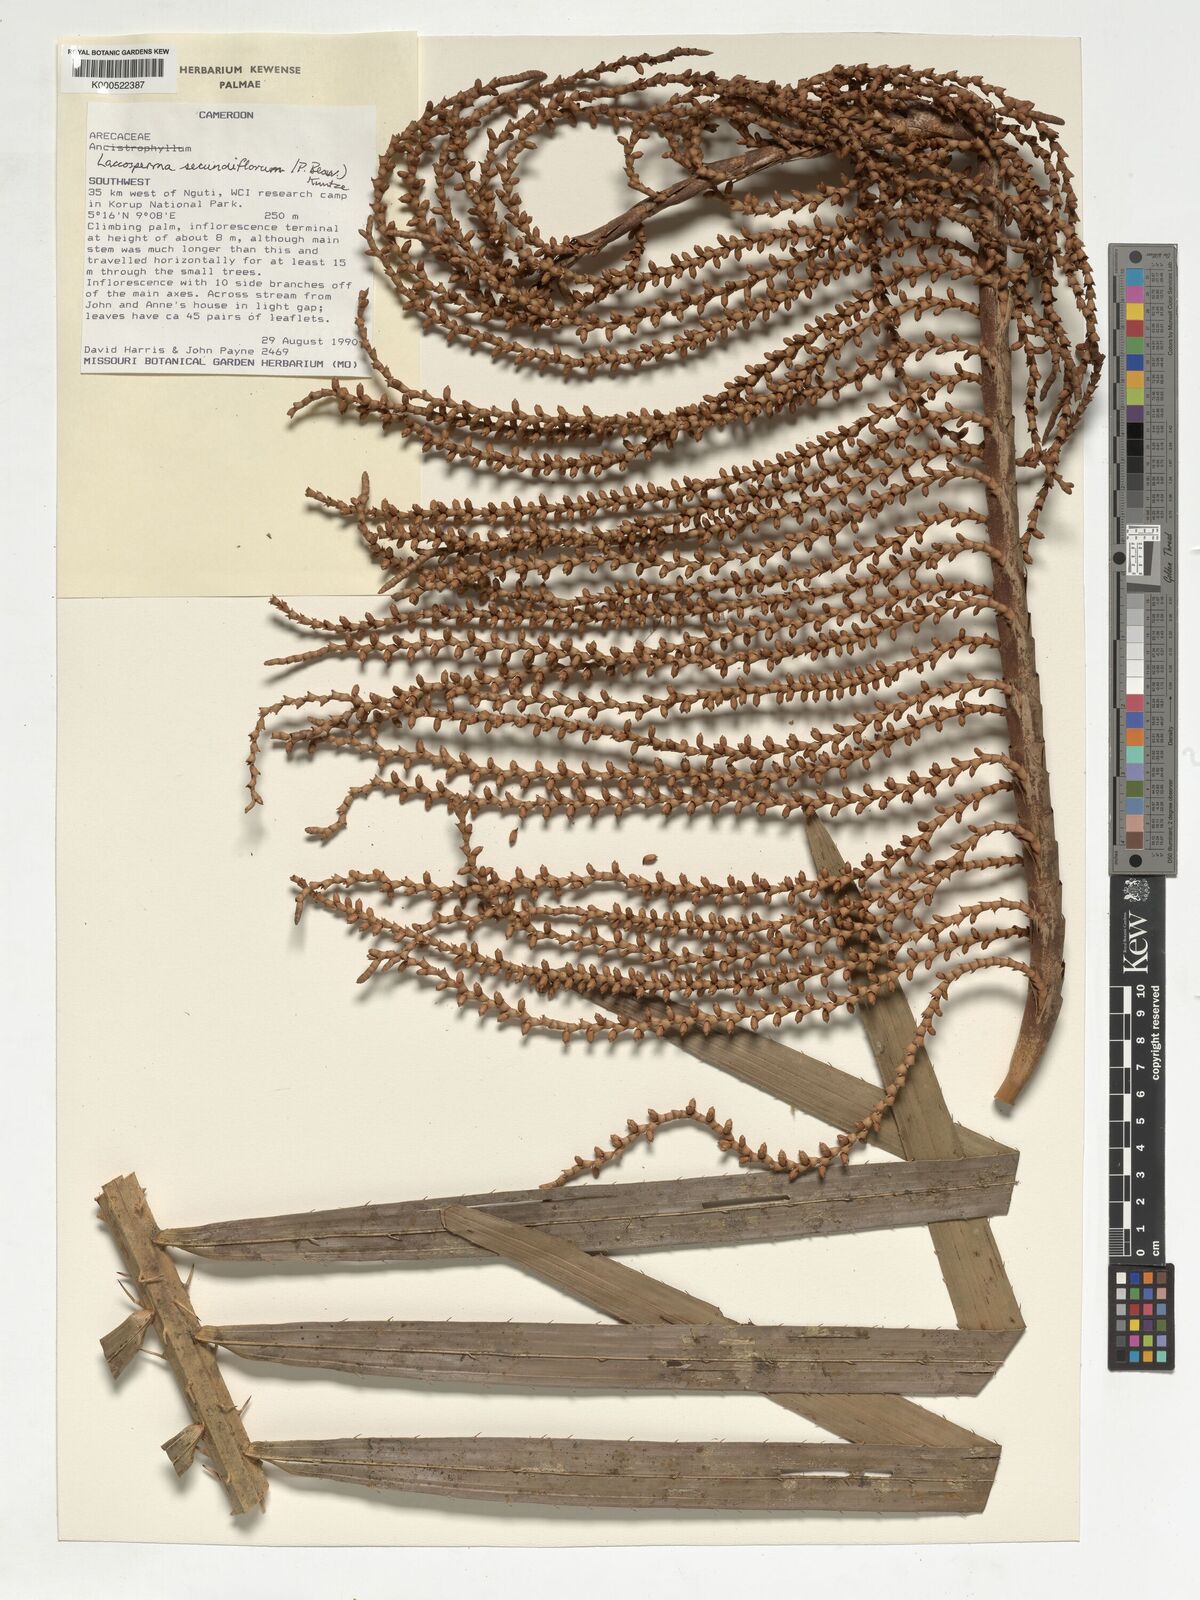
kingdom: Plantae
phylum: Tracheophyta
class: Liliopsida
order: Arecales
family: Arecaceae
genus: Laccosperma
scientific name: Laccosperma secundiflorum
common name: Rattan
